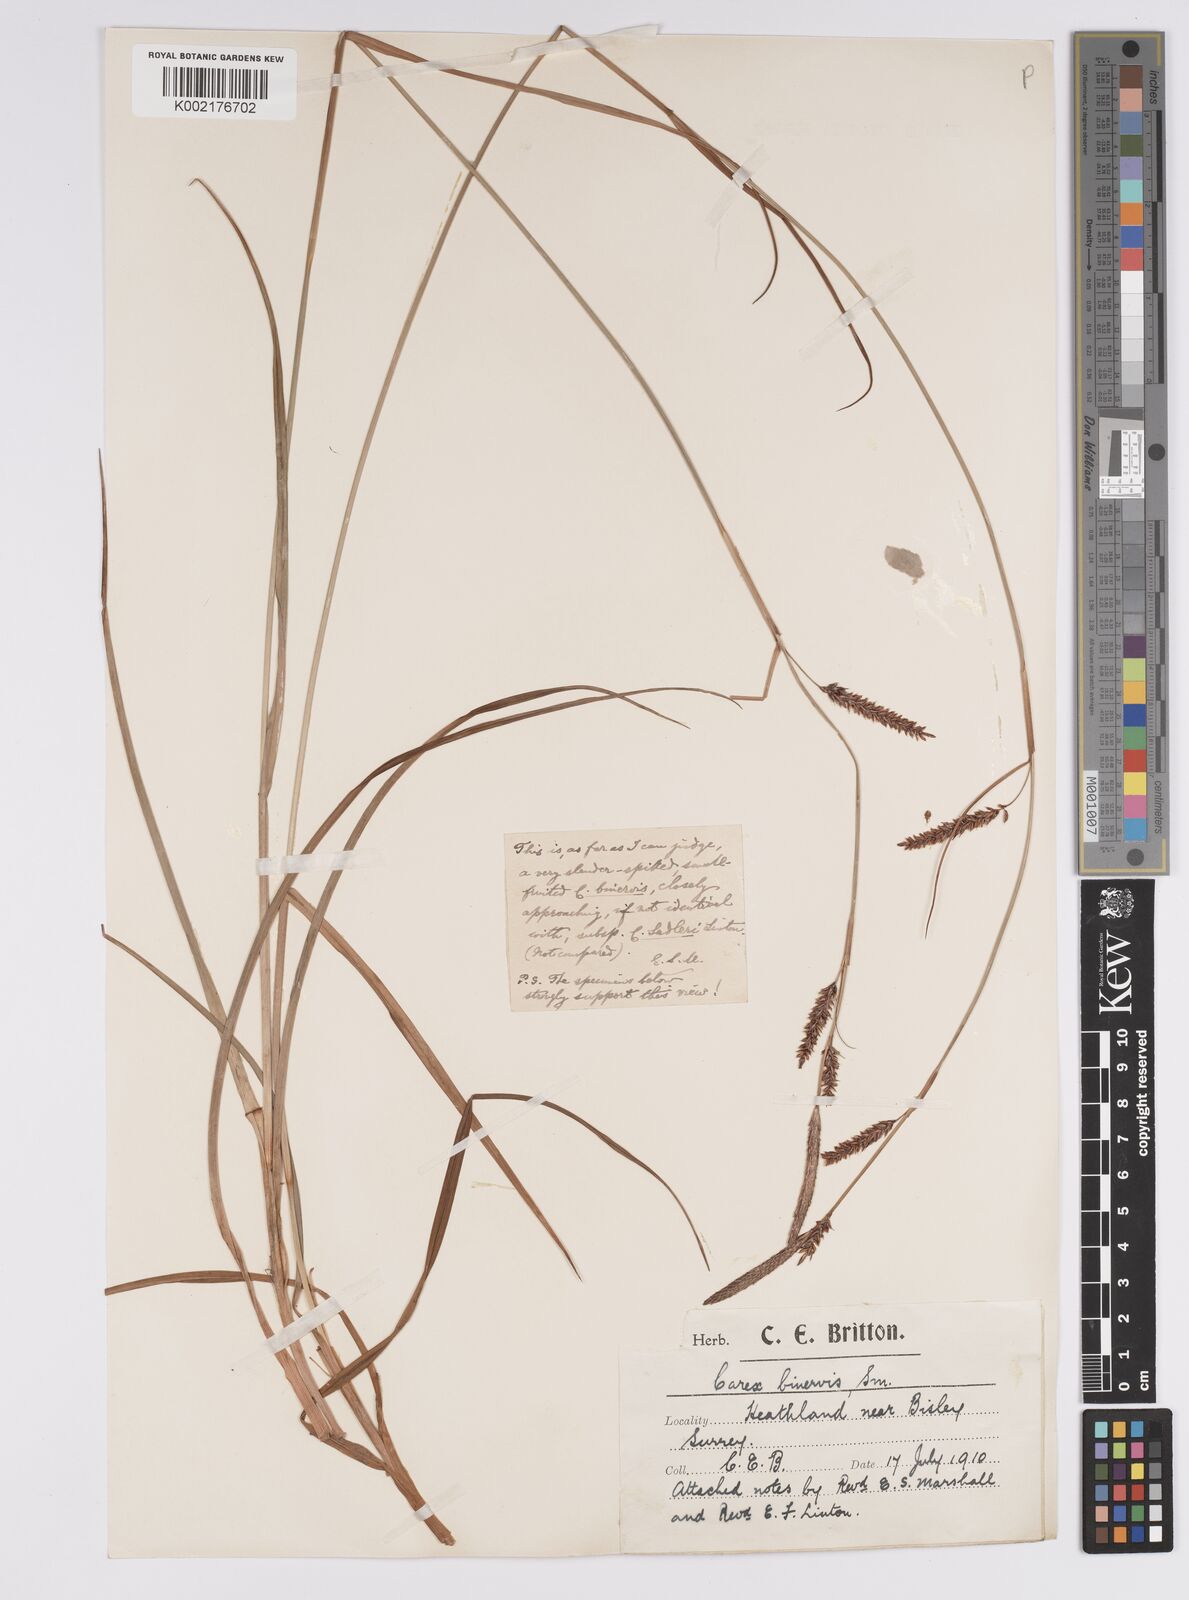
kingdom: Plantae
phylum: Tracheophyta
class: Liliopsida
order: Poales
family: Cyperaceae
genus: Carex
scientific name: Carex binervis
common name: Green-ribbed sedge
